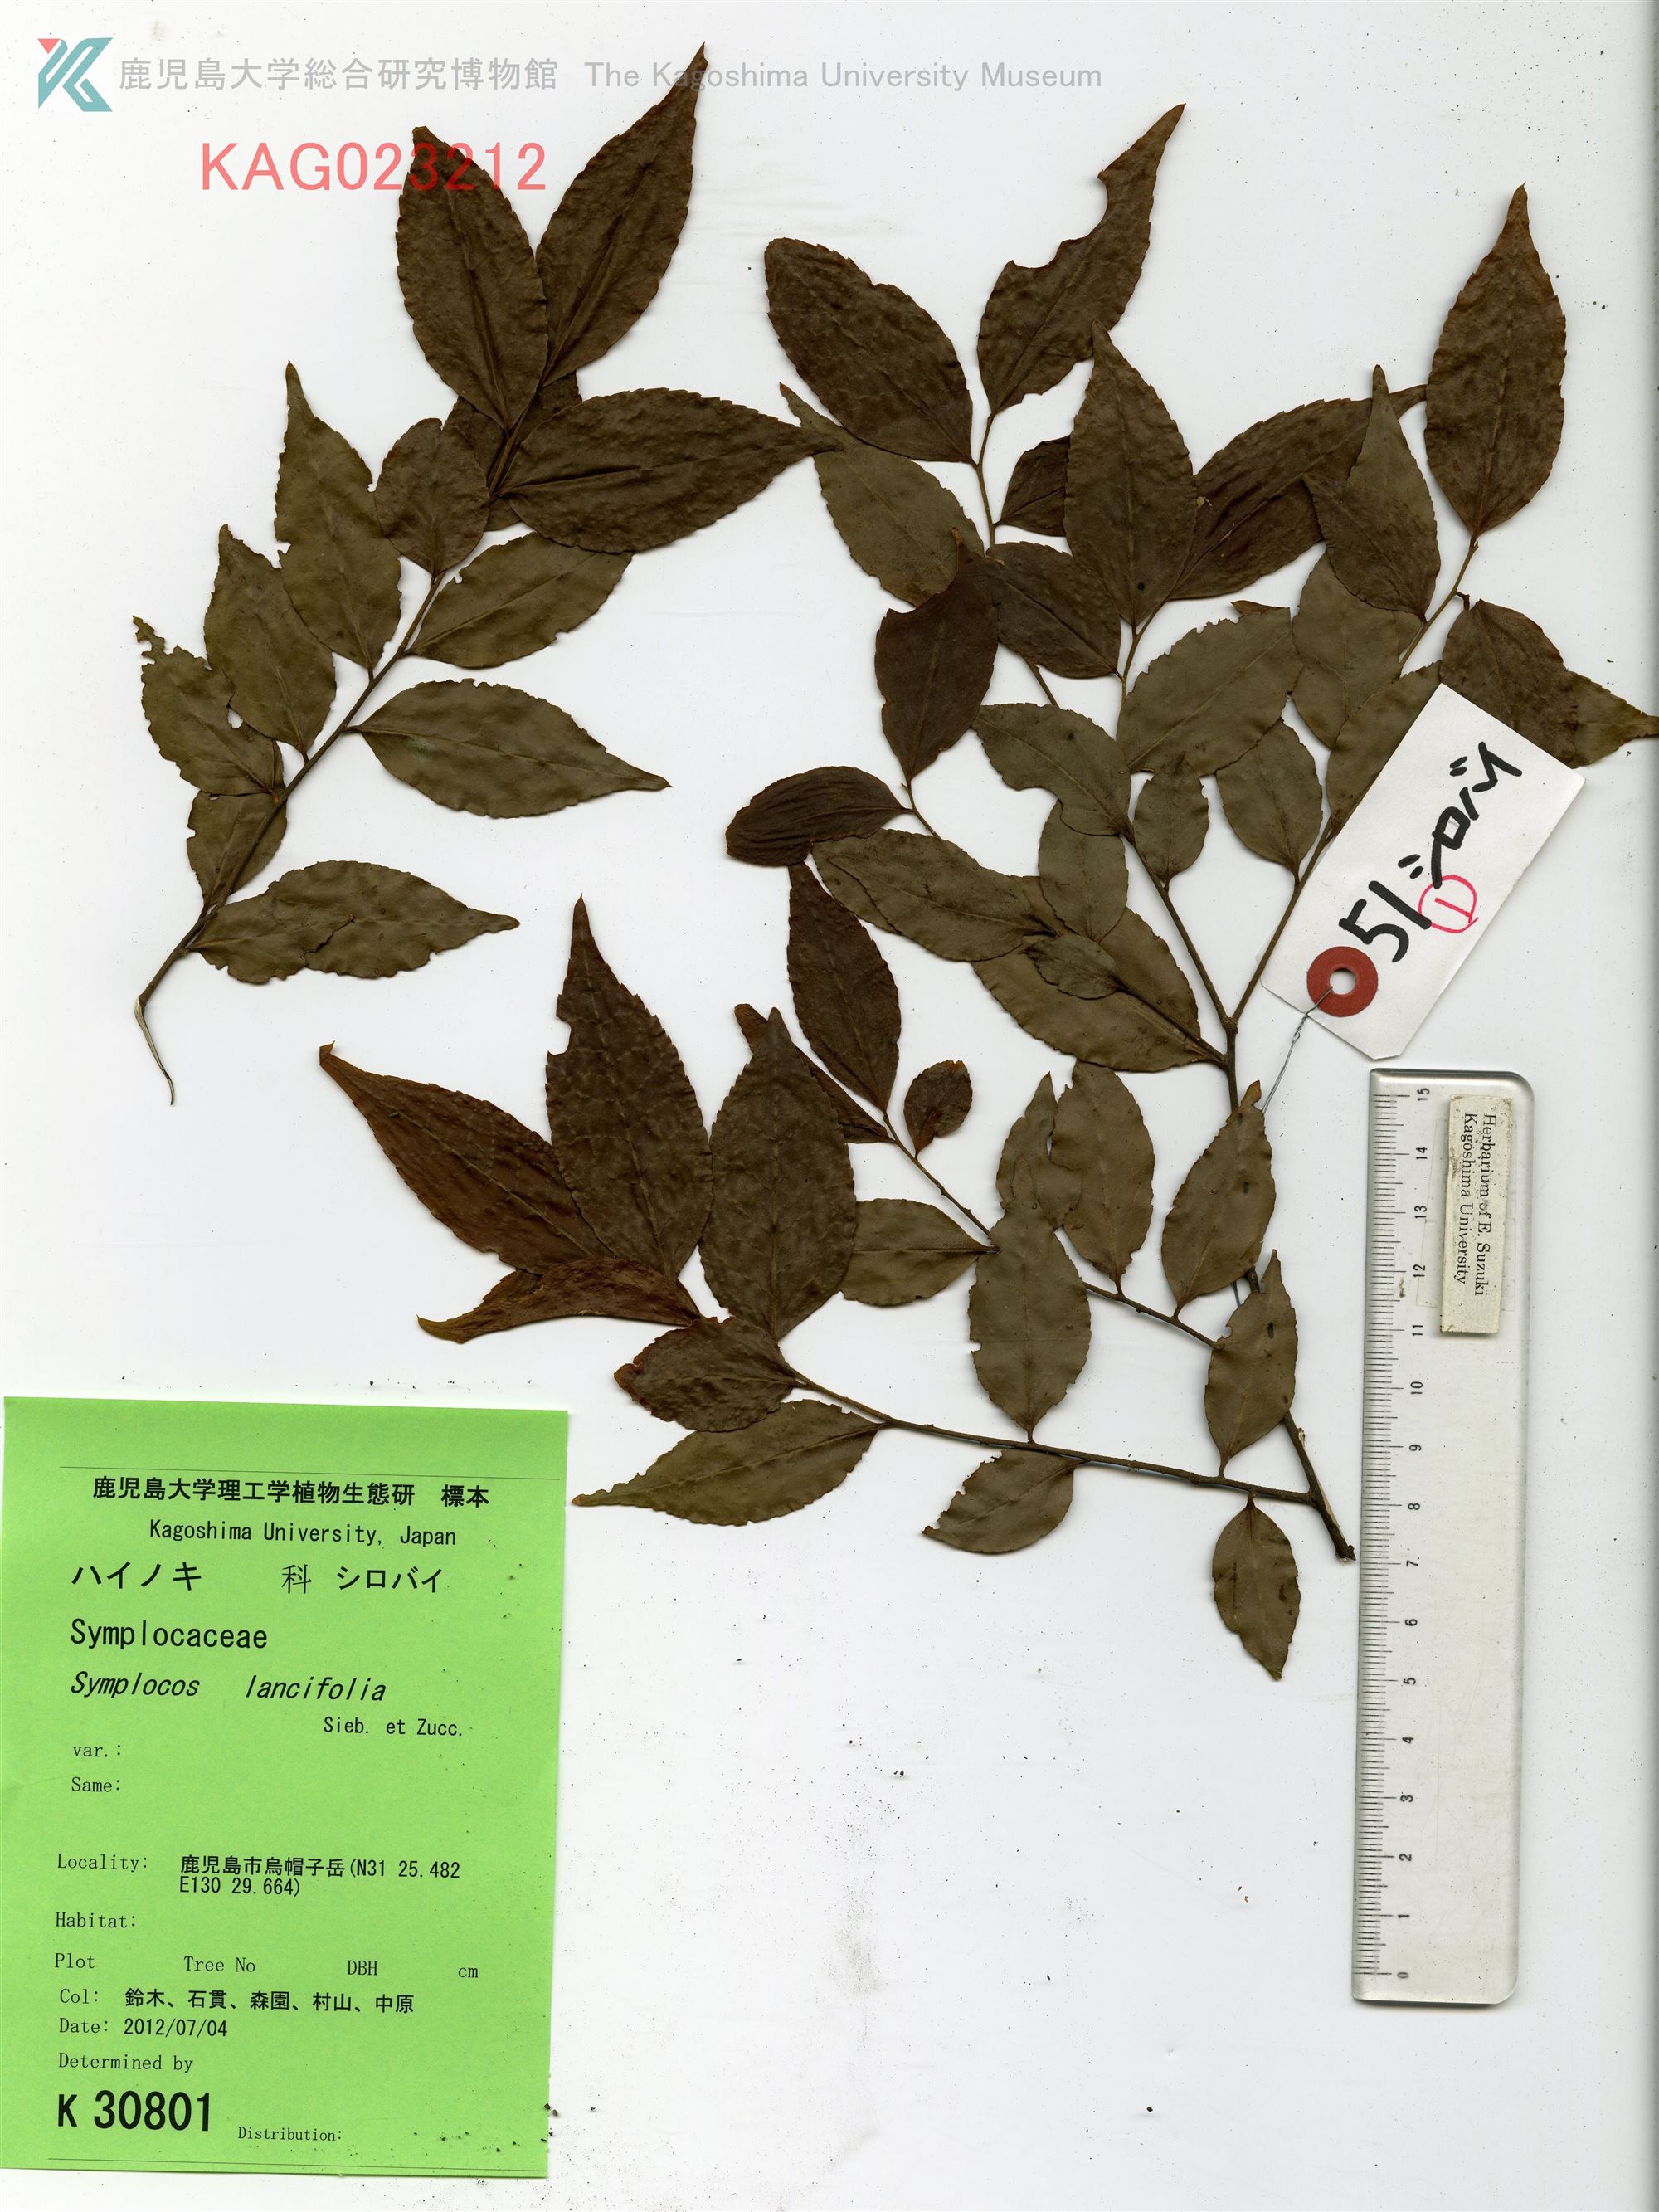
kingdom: Plantae
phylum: Tracheophyta
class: Magnoliopsida
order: Ericales
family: Symplocaceae
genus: Symplocos
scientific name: Symplocos lancifolia
